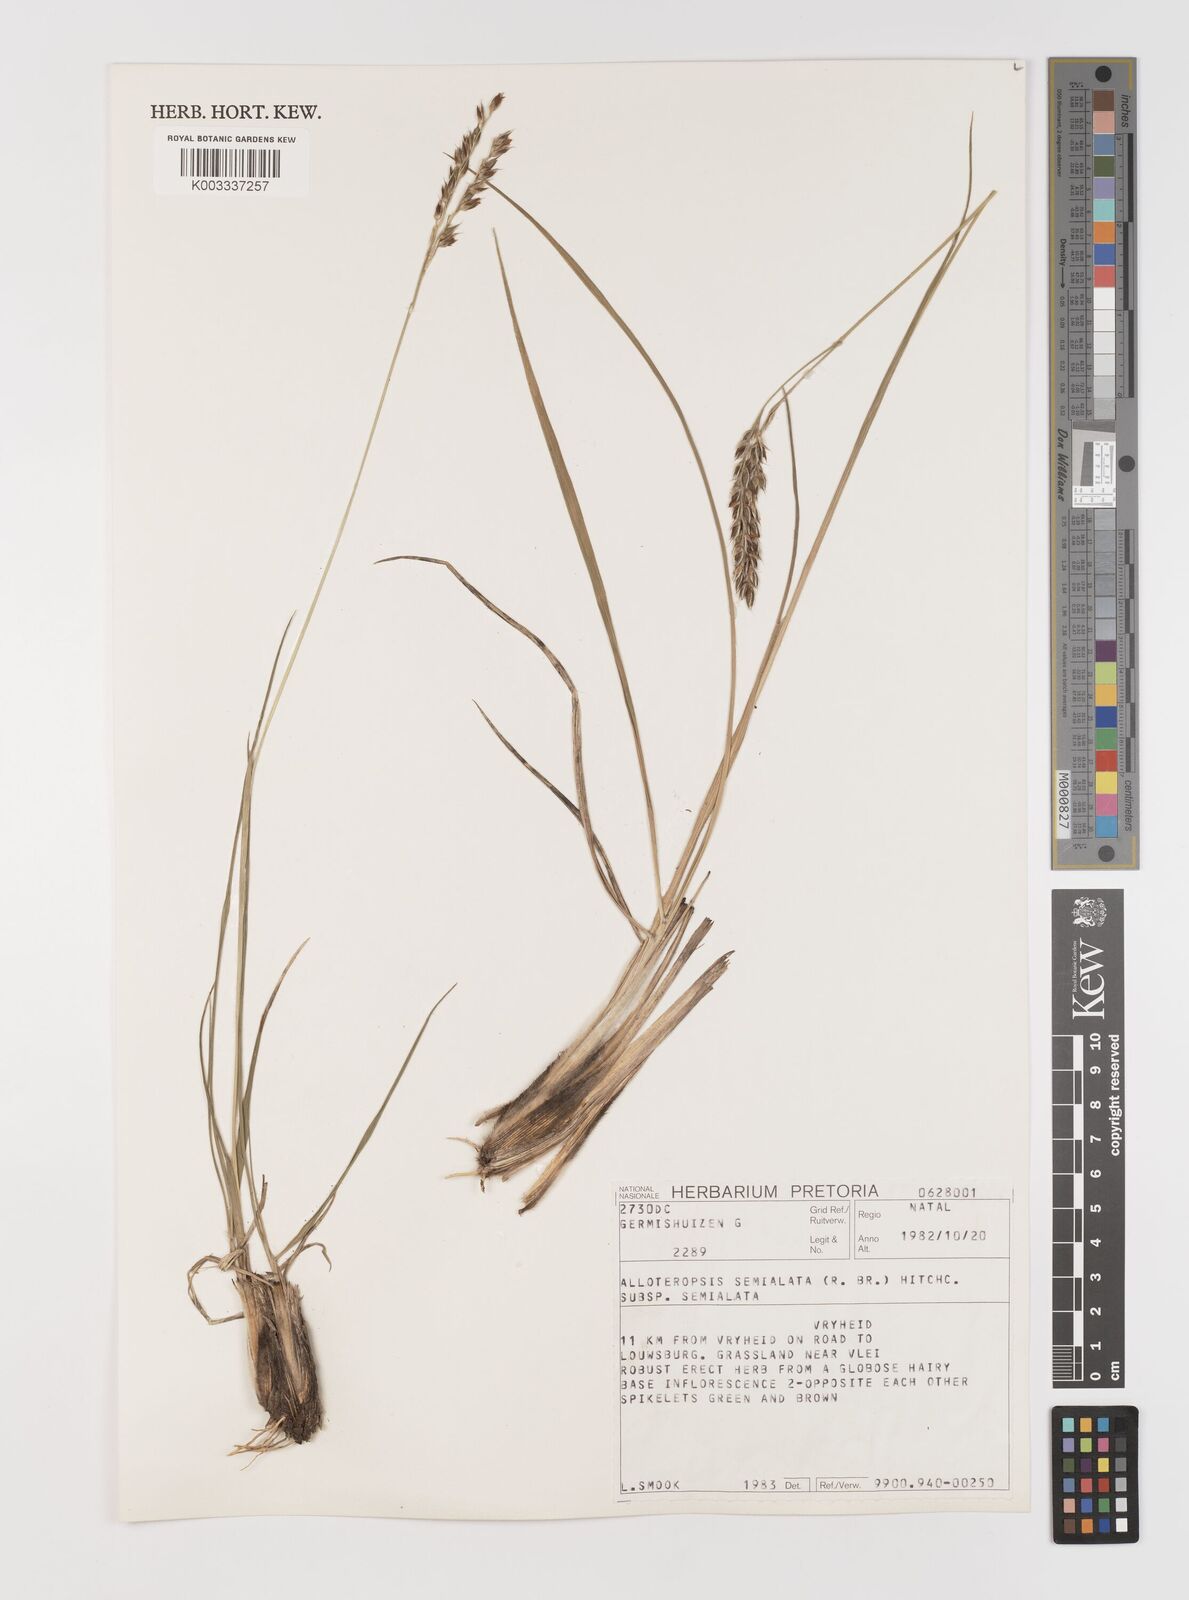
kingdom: Plantae
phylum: Tracheophyta
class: Liliopsida
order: Poales
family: Poaceae
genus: Alloteropsis
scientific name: Alloteropsis semialata
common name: Cockatoo grass
